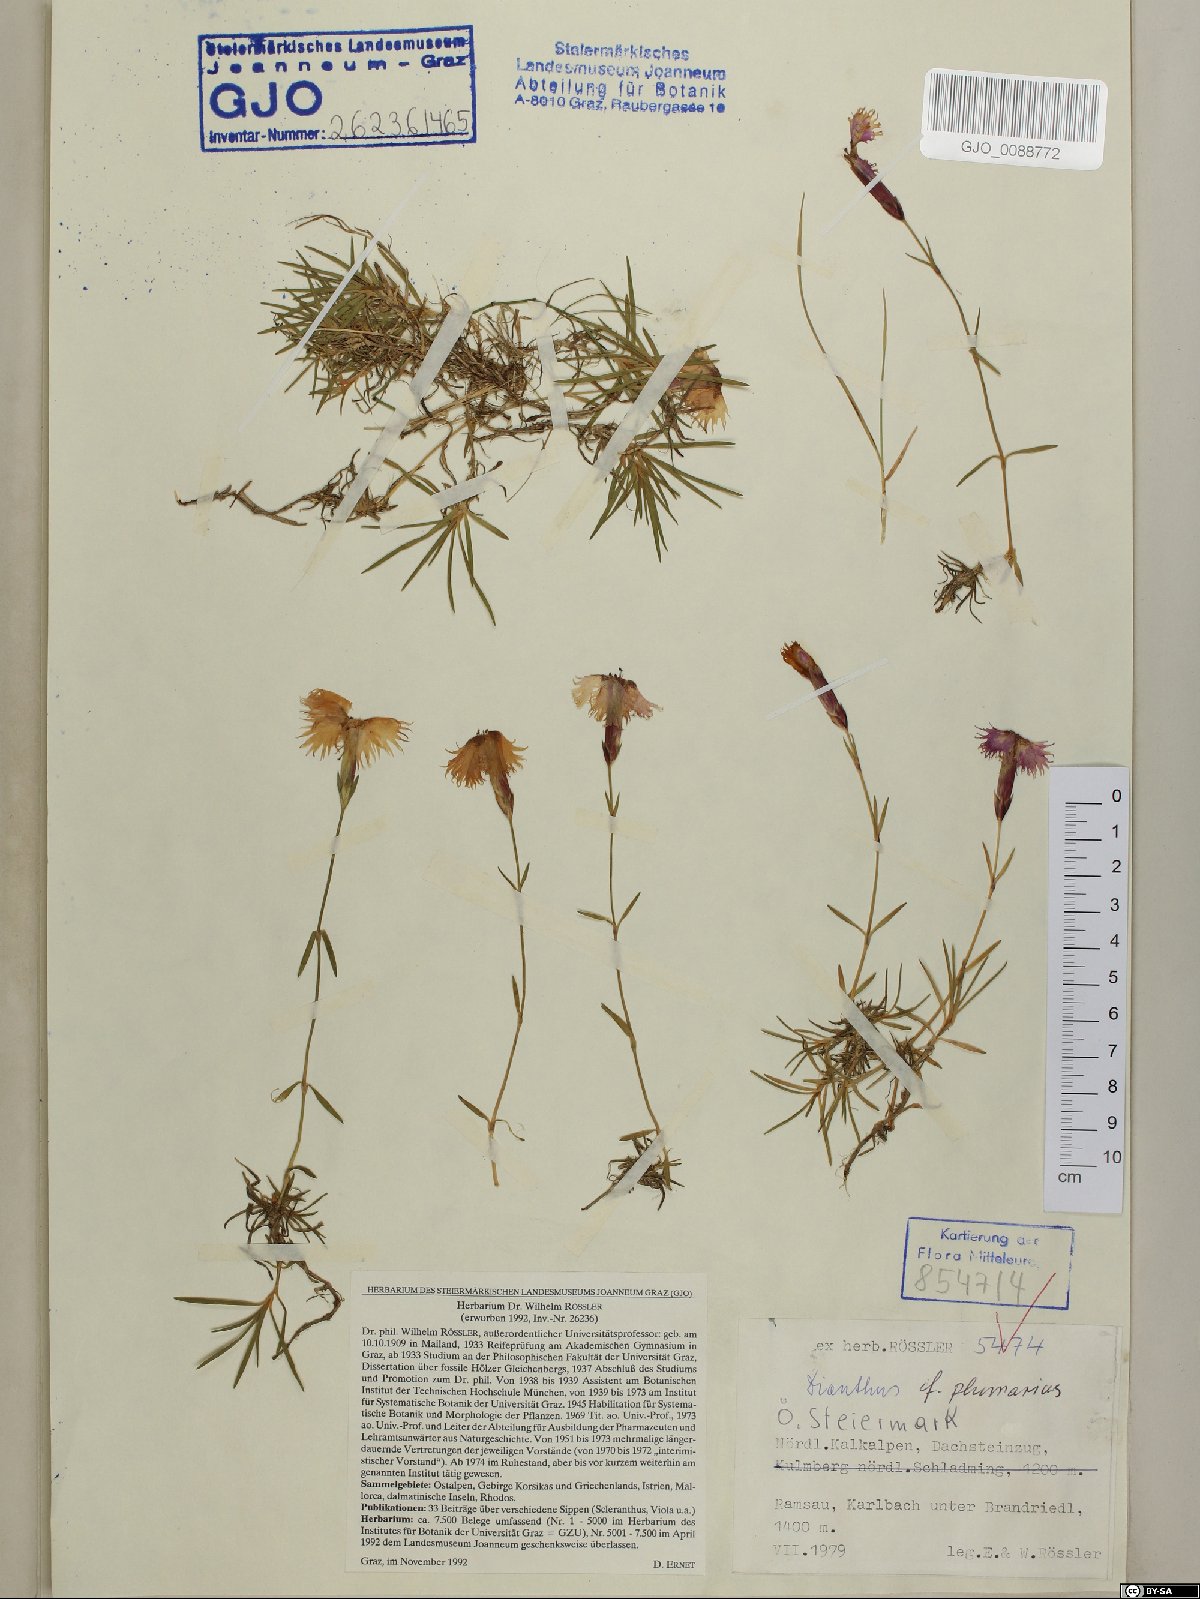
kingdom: Plantae
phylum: Tracheophyta
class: Magnoliopsida
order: Caryophyllales
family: Caryophyllaceae
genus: Dianthus
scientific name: Dianthus plumarius
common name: Pink
